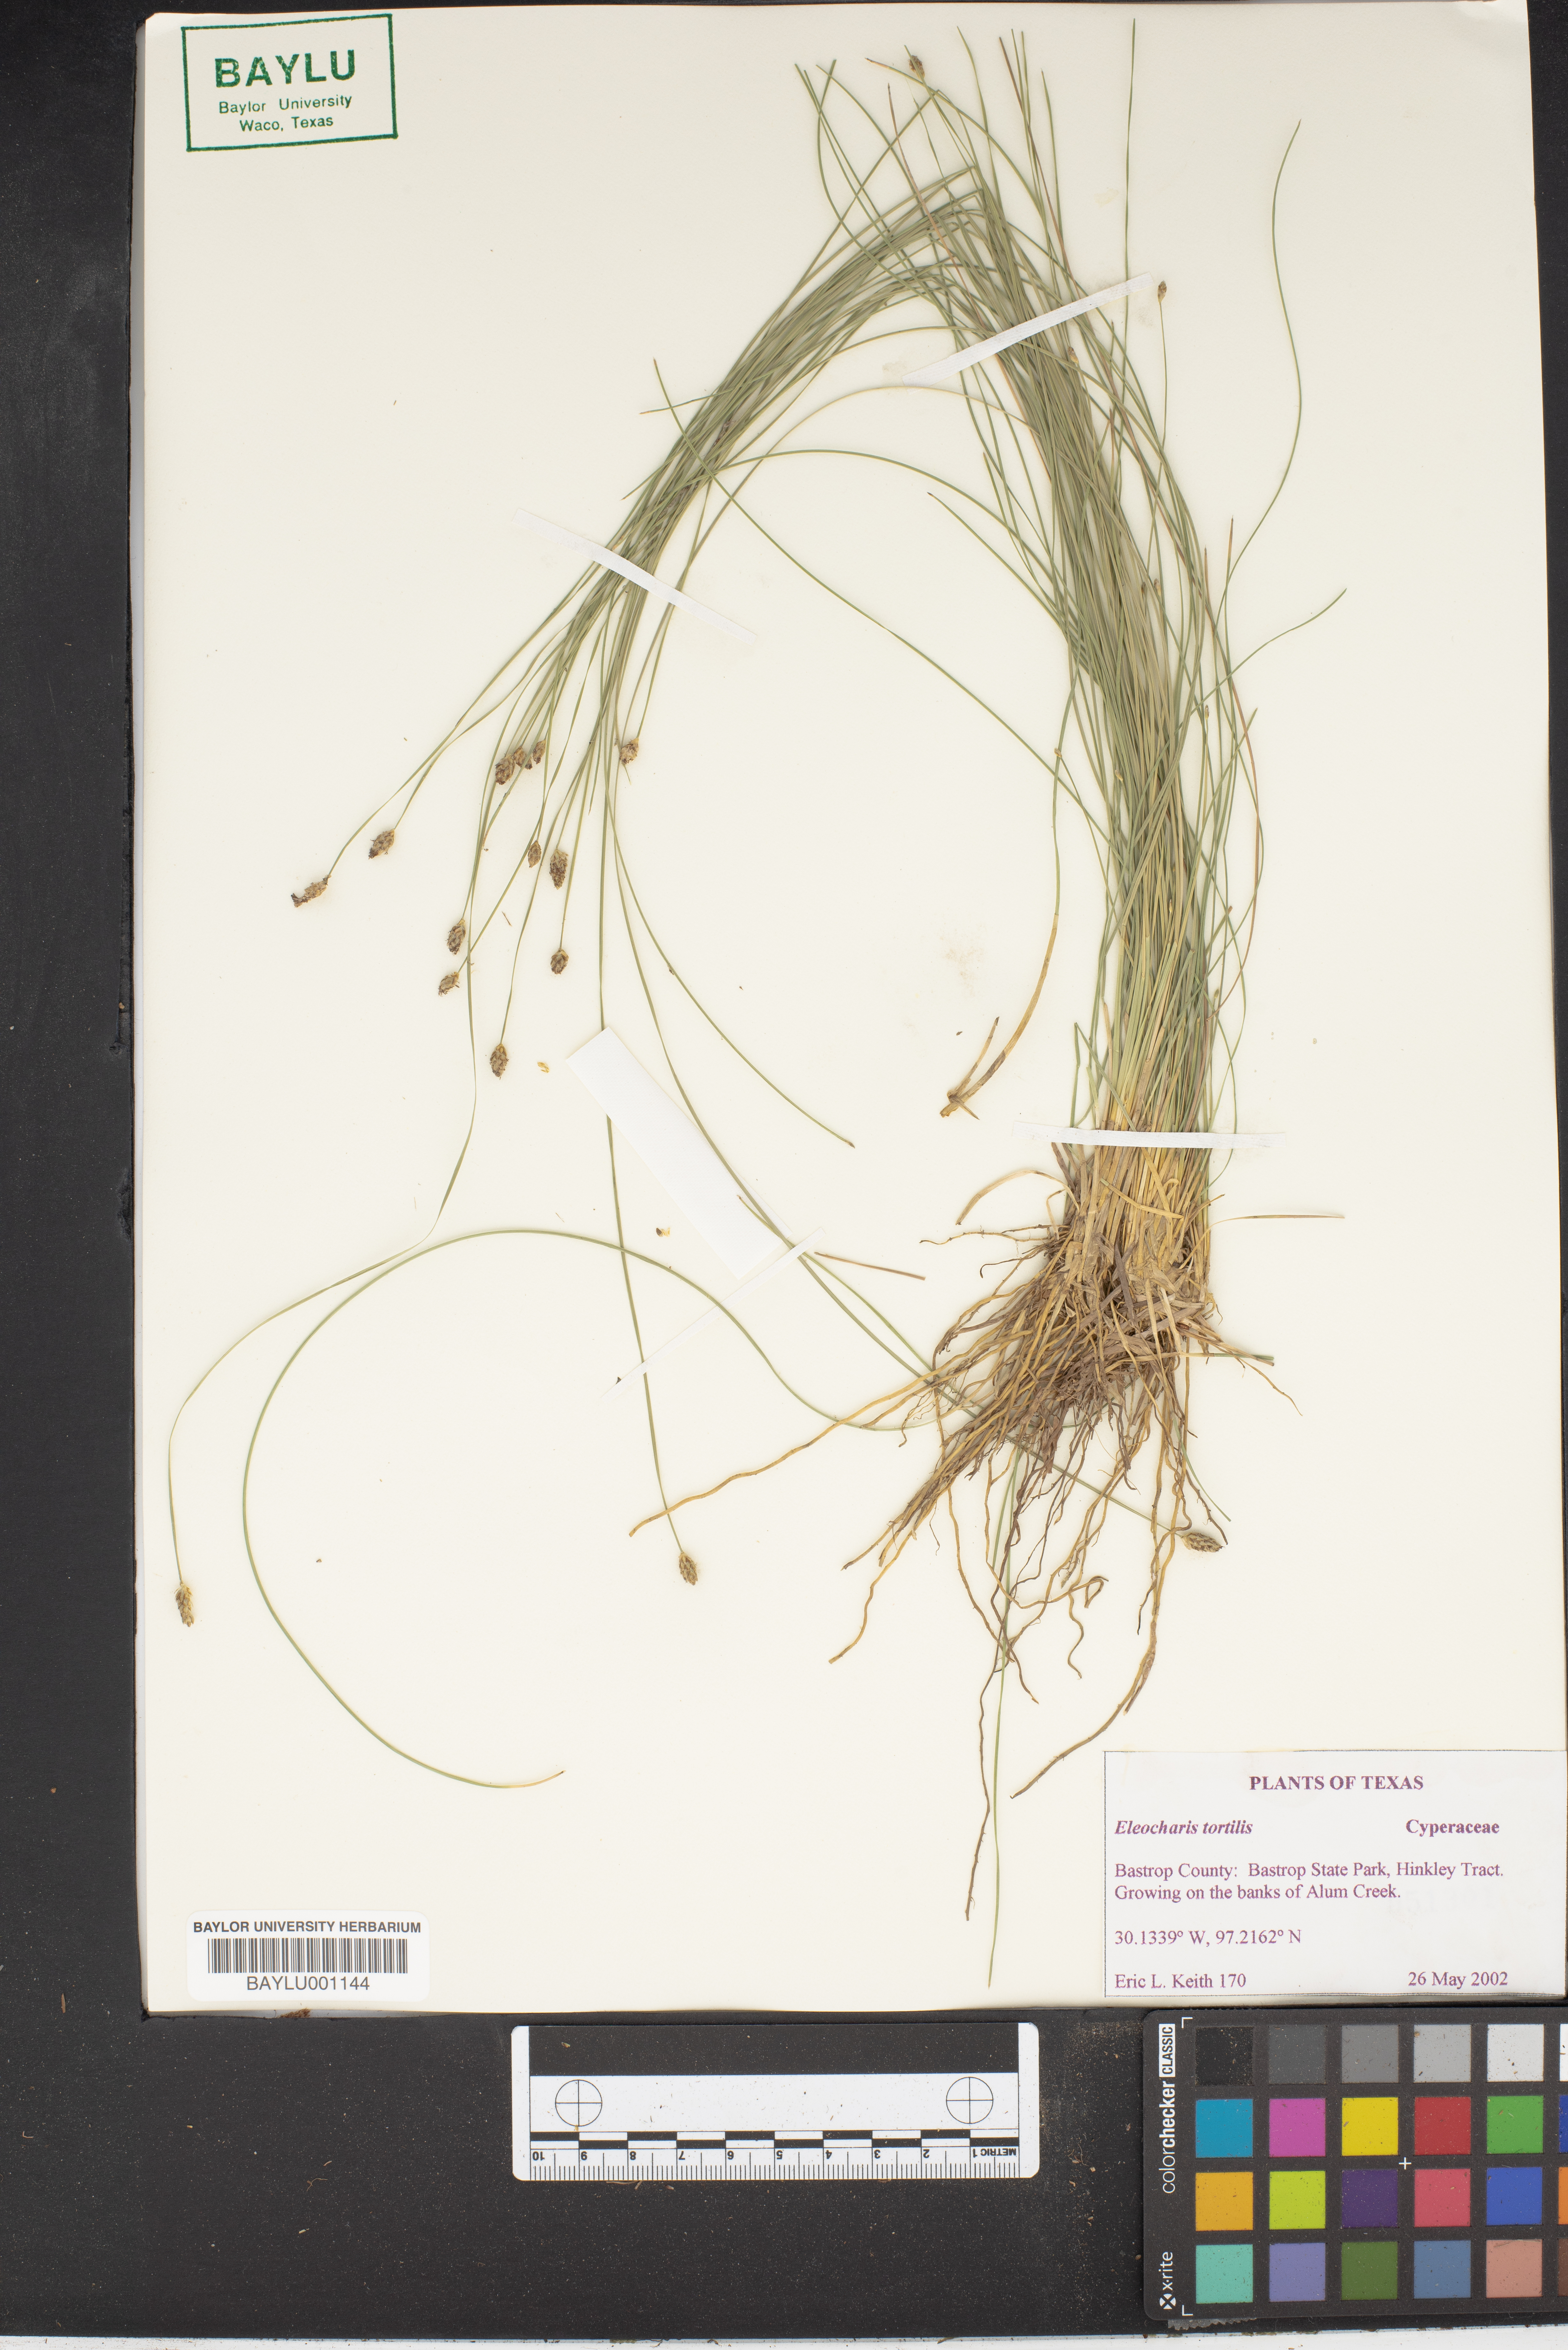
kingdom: Plantae
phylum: Tracheophyta
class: Liliopsida
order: Poales
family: Cyperaceae
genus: Eleocharis
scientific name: Eleocharis tortilis
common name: Twisted spike sedge
